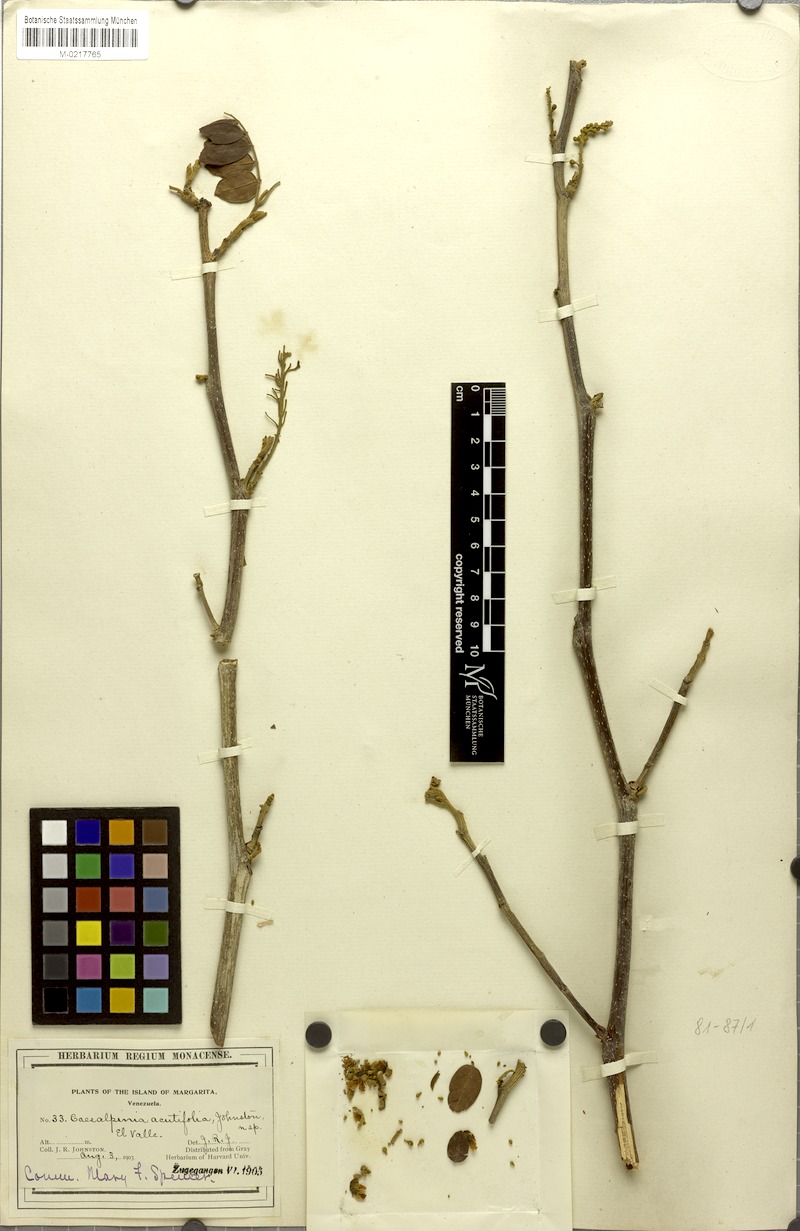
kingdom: Plantae
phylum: Tracheophyta
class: Magnoliopsida
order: Fabales
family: Fabaceae
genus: Coulteria
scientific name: Coulteria mollis
